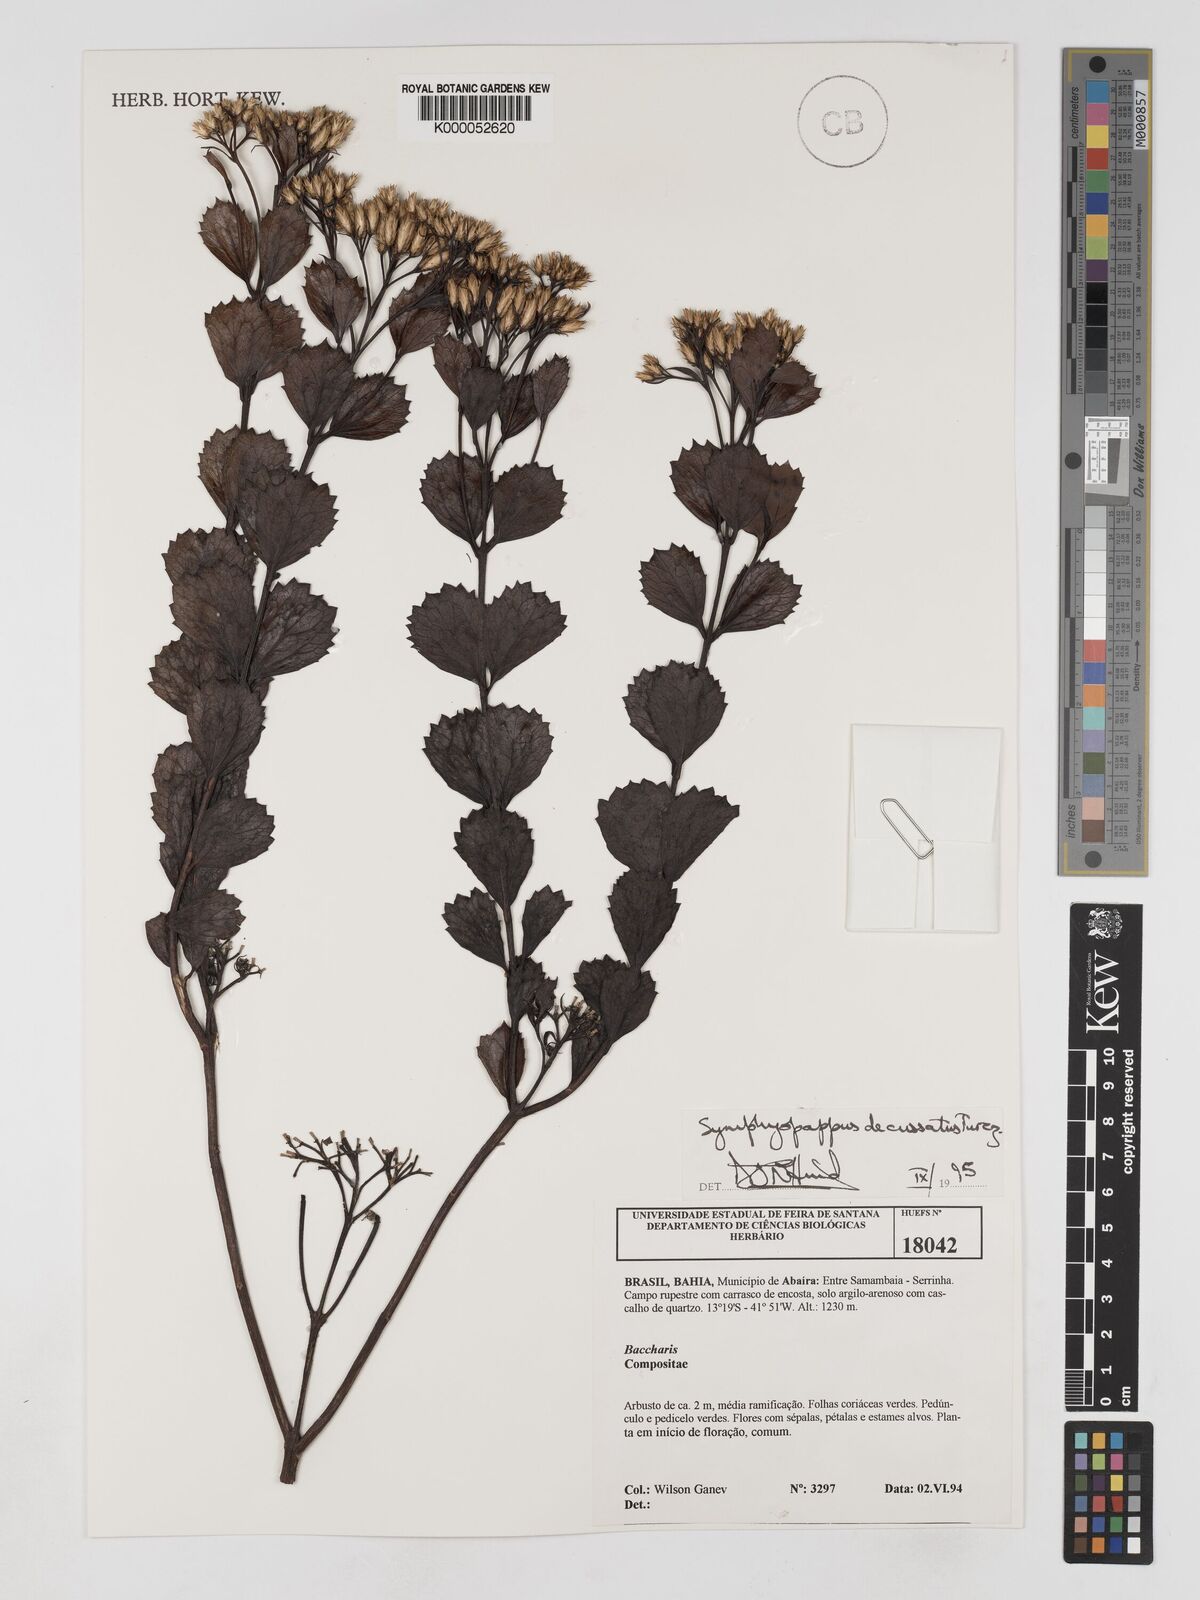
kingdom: Plantae
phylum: Tracheophyta
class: Magnoliopsida
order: Asterales
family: Asteraceae
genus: Symphyopappus
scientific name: Symphyopappus decussatus
